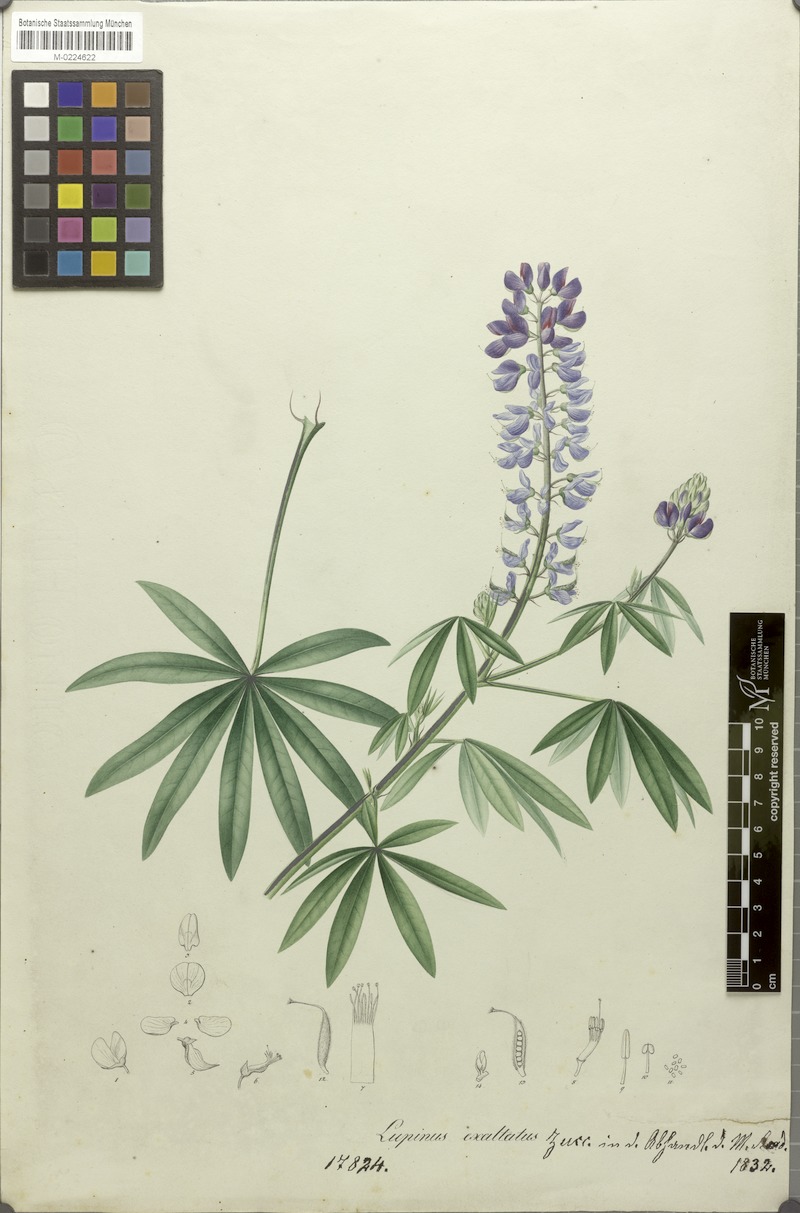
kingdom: Plantae
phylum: Tracheophyta
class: Magnoliopsida
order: Fabales
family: Fabaceae
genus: Lupinus
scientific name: Lupinus exaltatus
